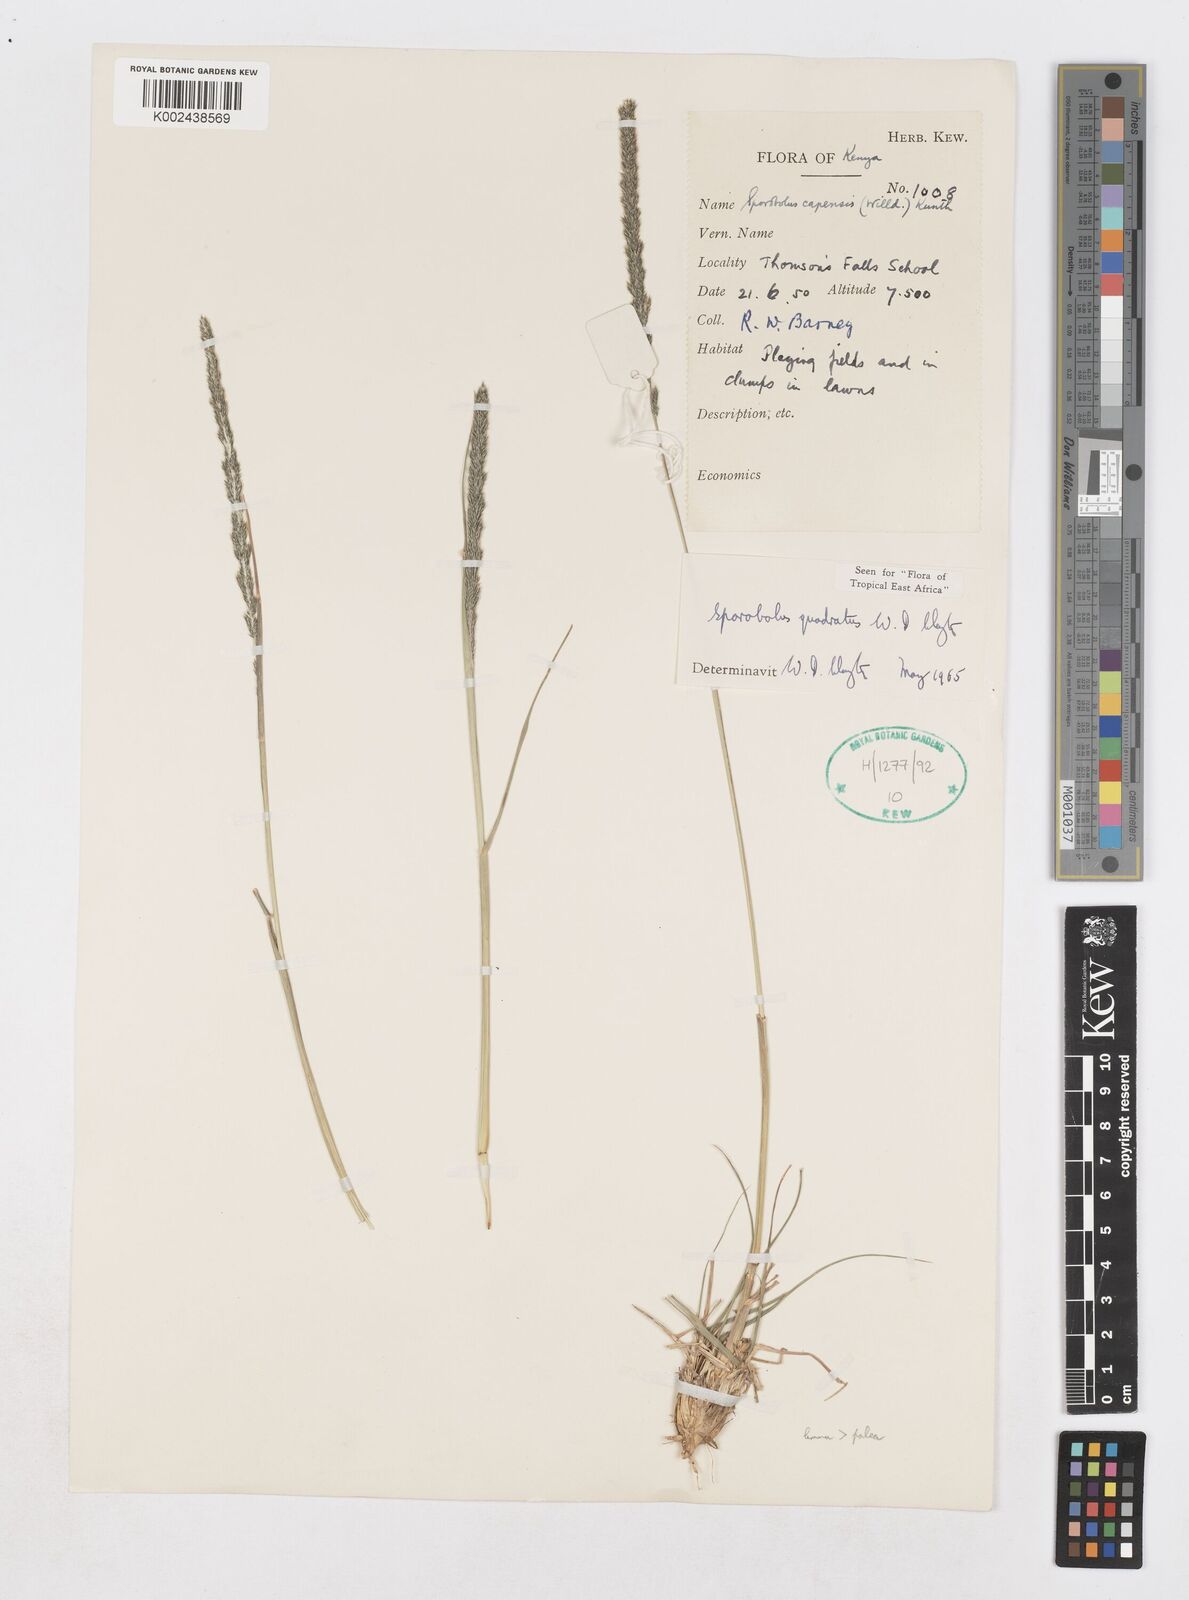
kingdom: Plantae
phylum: Tracheophyta
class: Liliopsida
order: Poales
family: Poaceae
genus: Sporobolus
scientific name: Sporobolus quadratus
